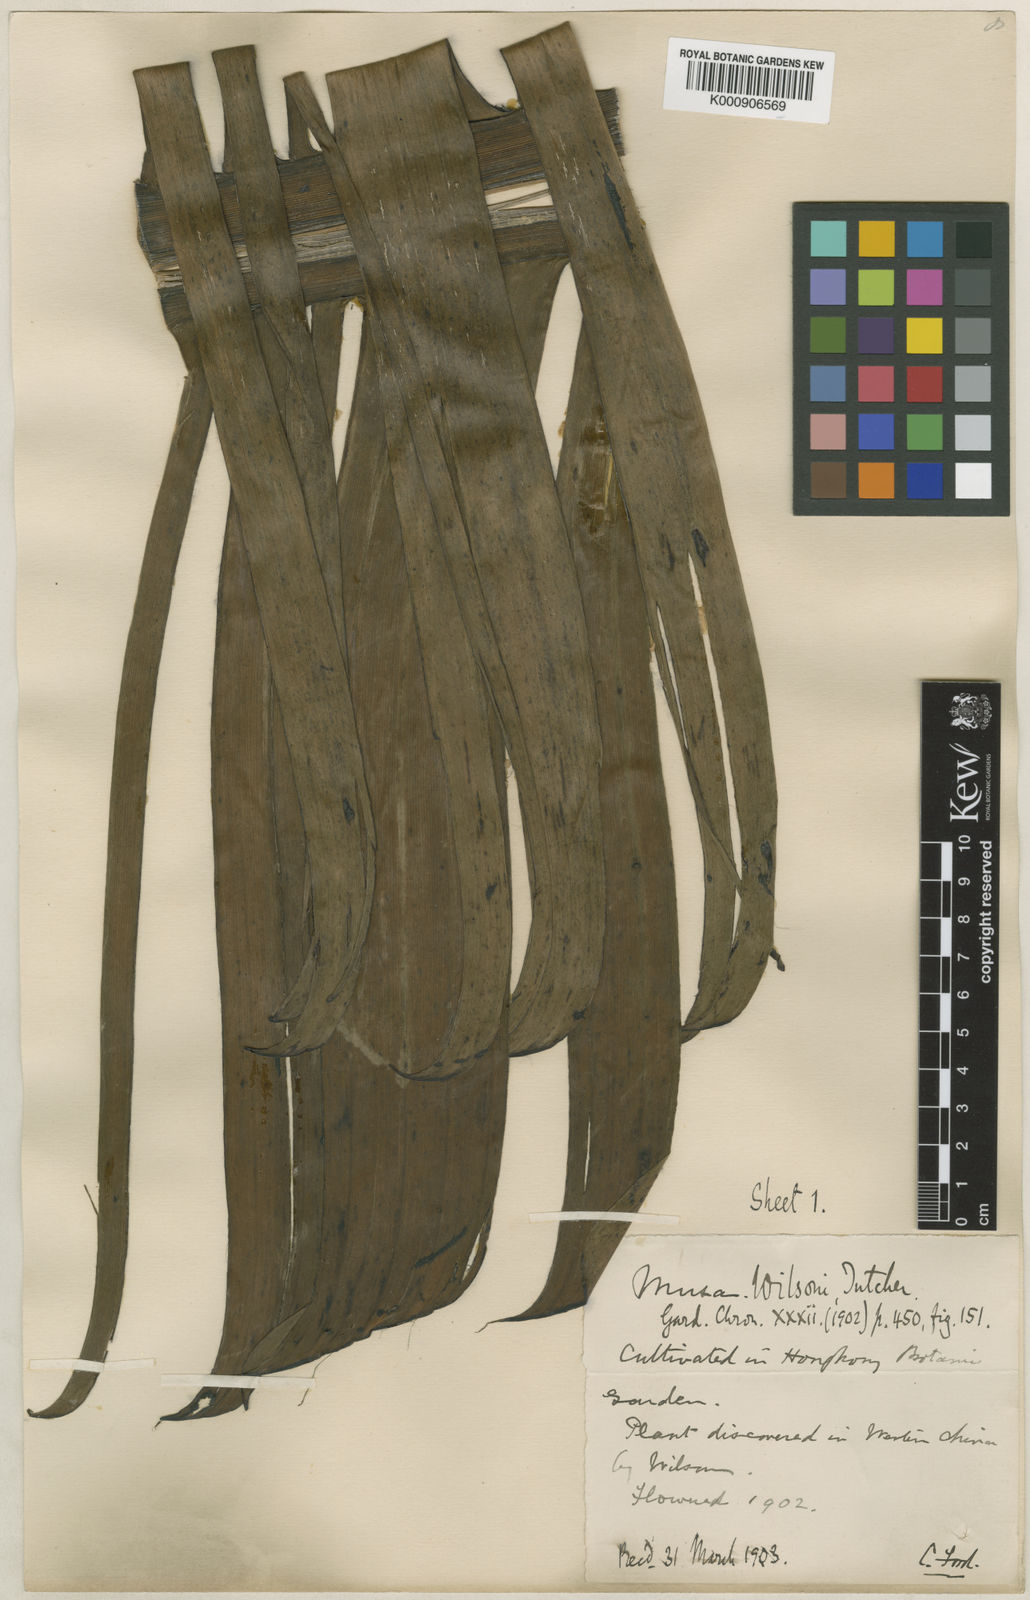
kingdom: Plantae
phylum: Tracheophyta
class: Liliopsida
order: Zingiberales
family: Musaceae
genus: Ensete
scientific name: Ensete glaucum
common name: Snow banana
